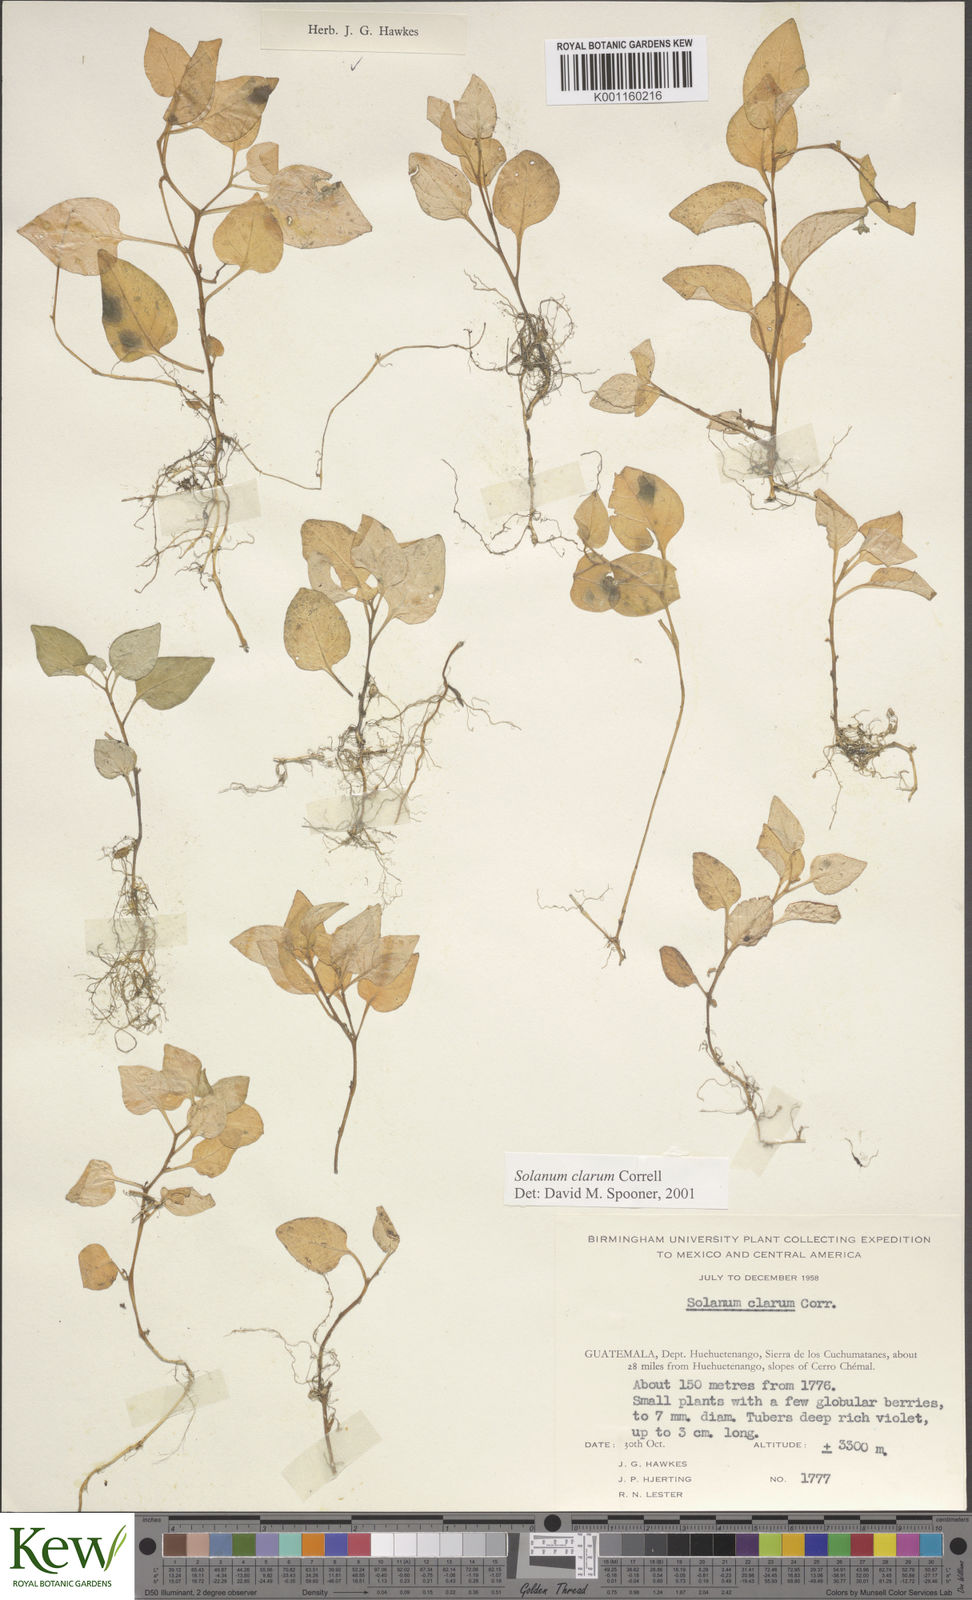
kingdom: Plantae
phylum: Tracheophyta
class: Magnoliopsida
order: Solanales
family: Solanaceae
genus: Solanum
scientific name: Solanum clarum
